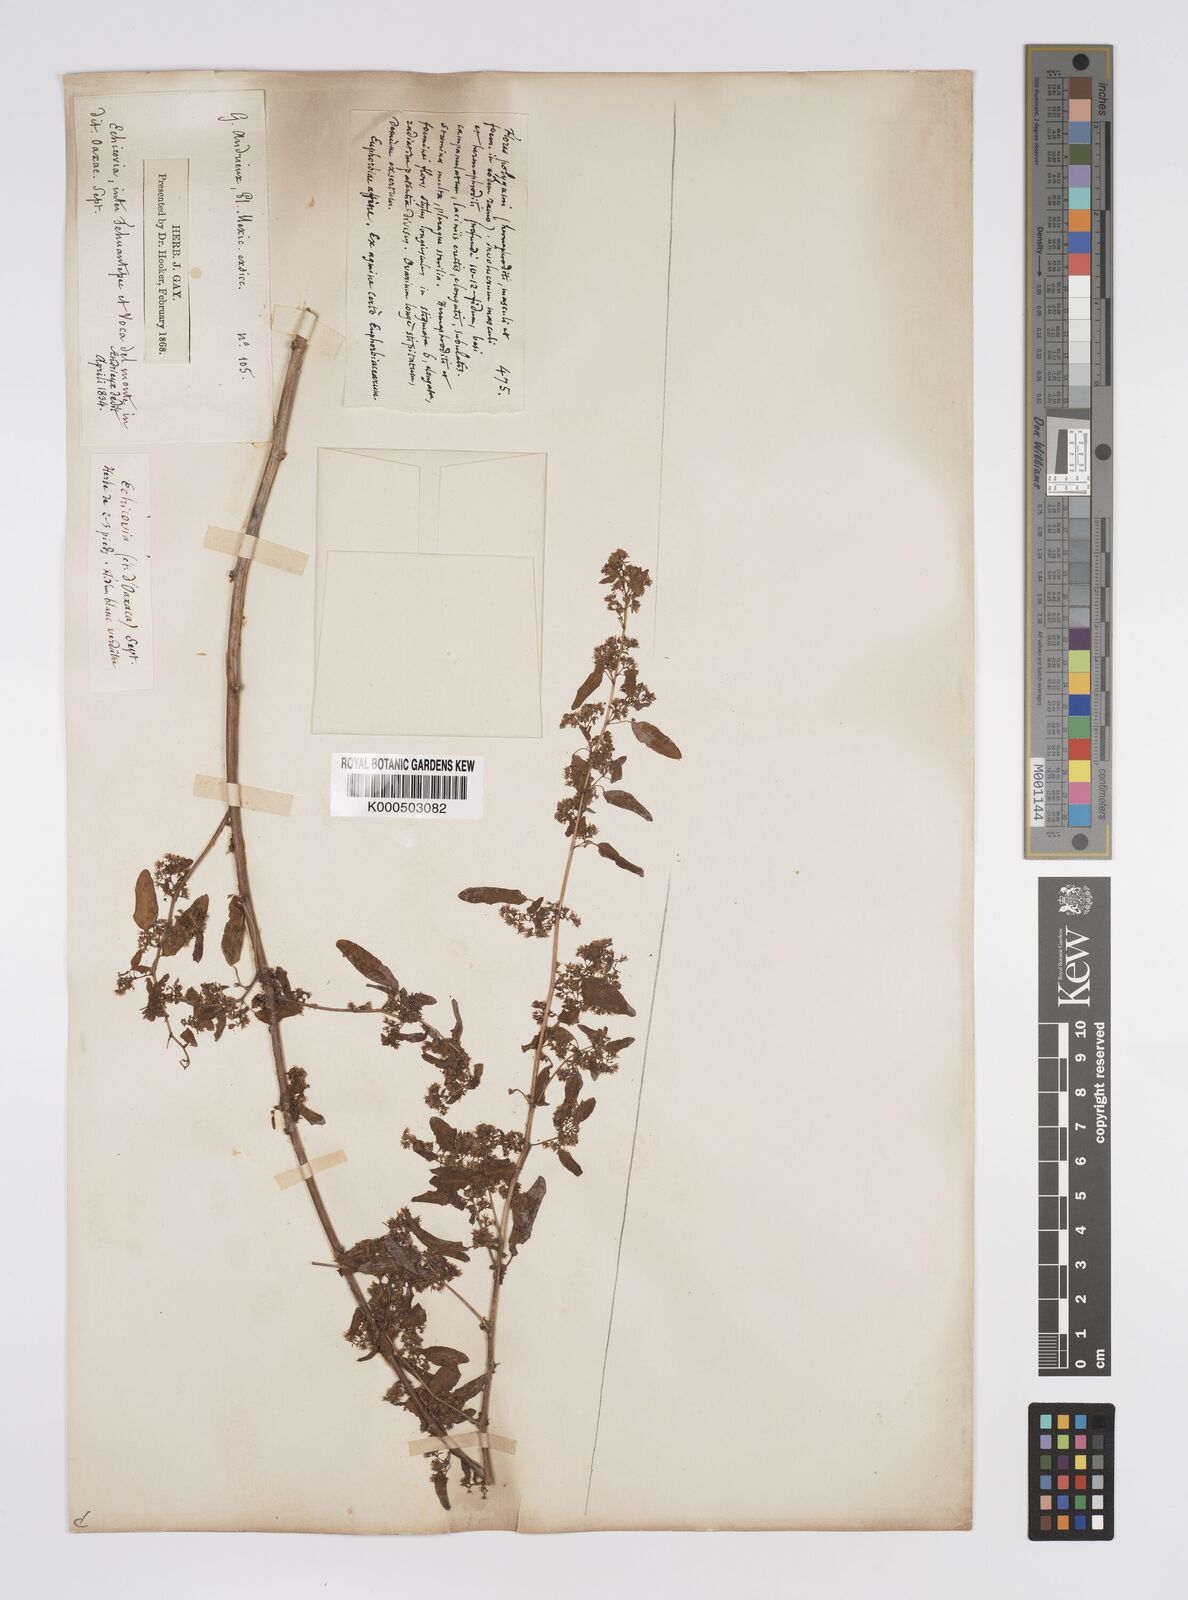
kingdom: Plantae
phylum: Tracheophyta
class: Magnoliopsida
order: Malpighiales
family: Euphorbiaceae
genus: Euphorbia
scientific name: Euphorbia
